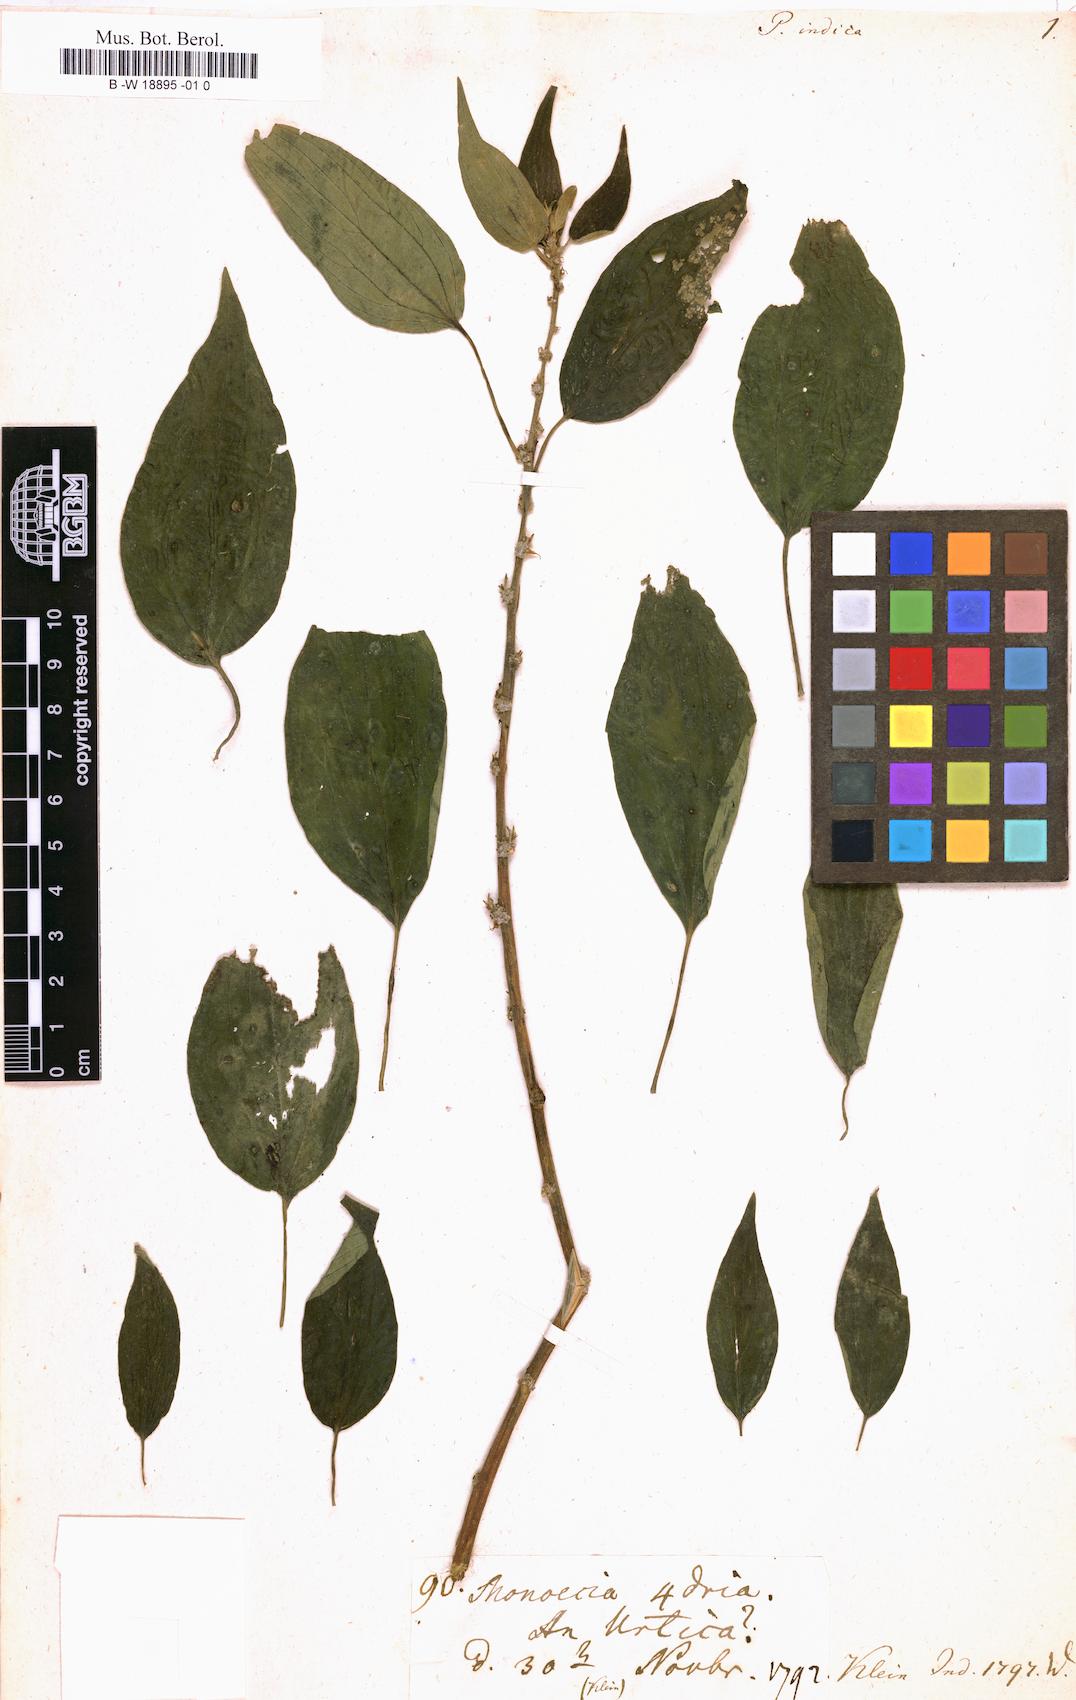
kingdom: Plantae
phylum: Tracheophyta
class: Magnoliopsida
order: Rosales
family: Urticaceae
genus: Pouzolzia
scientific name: Pouzolzia zeylanica
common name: Graceful pouzolzsbush
